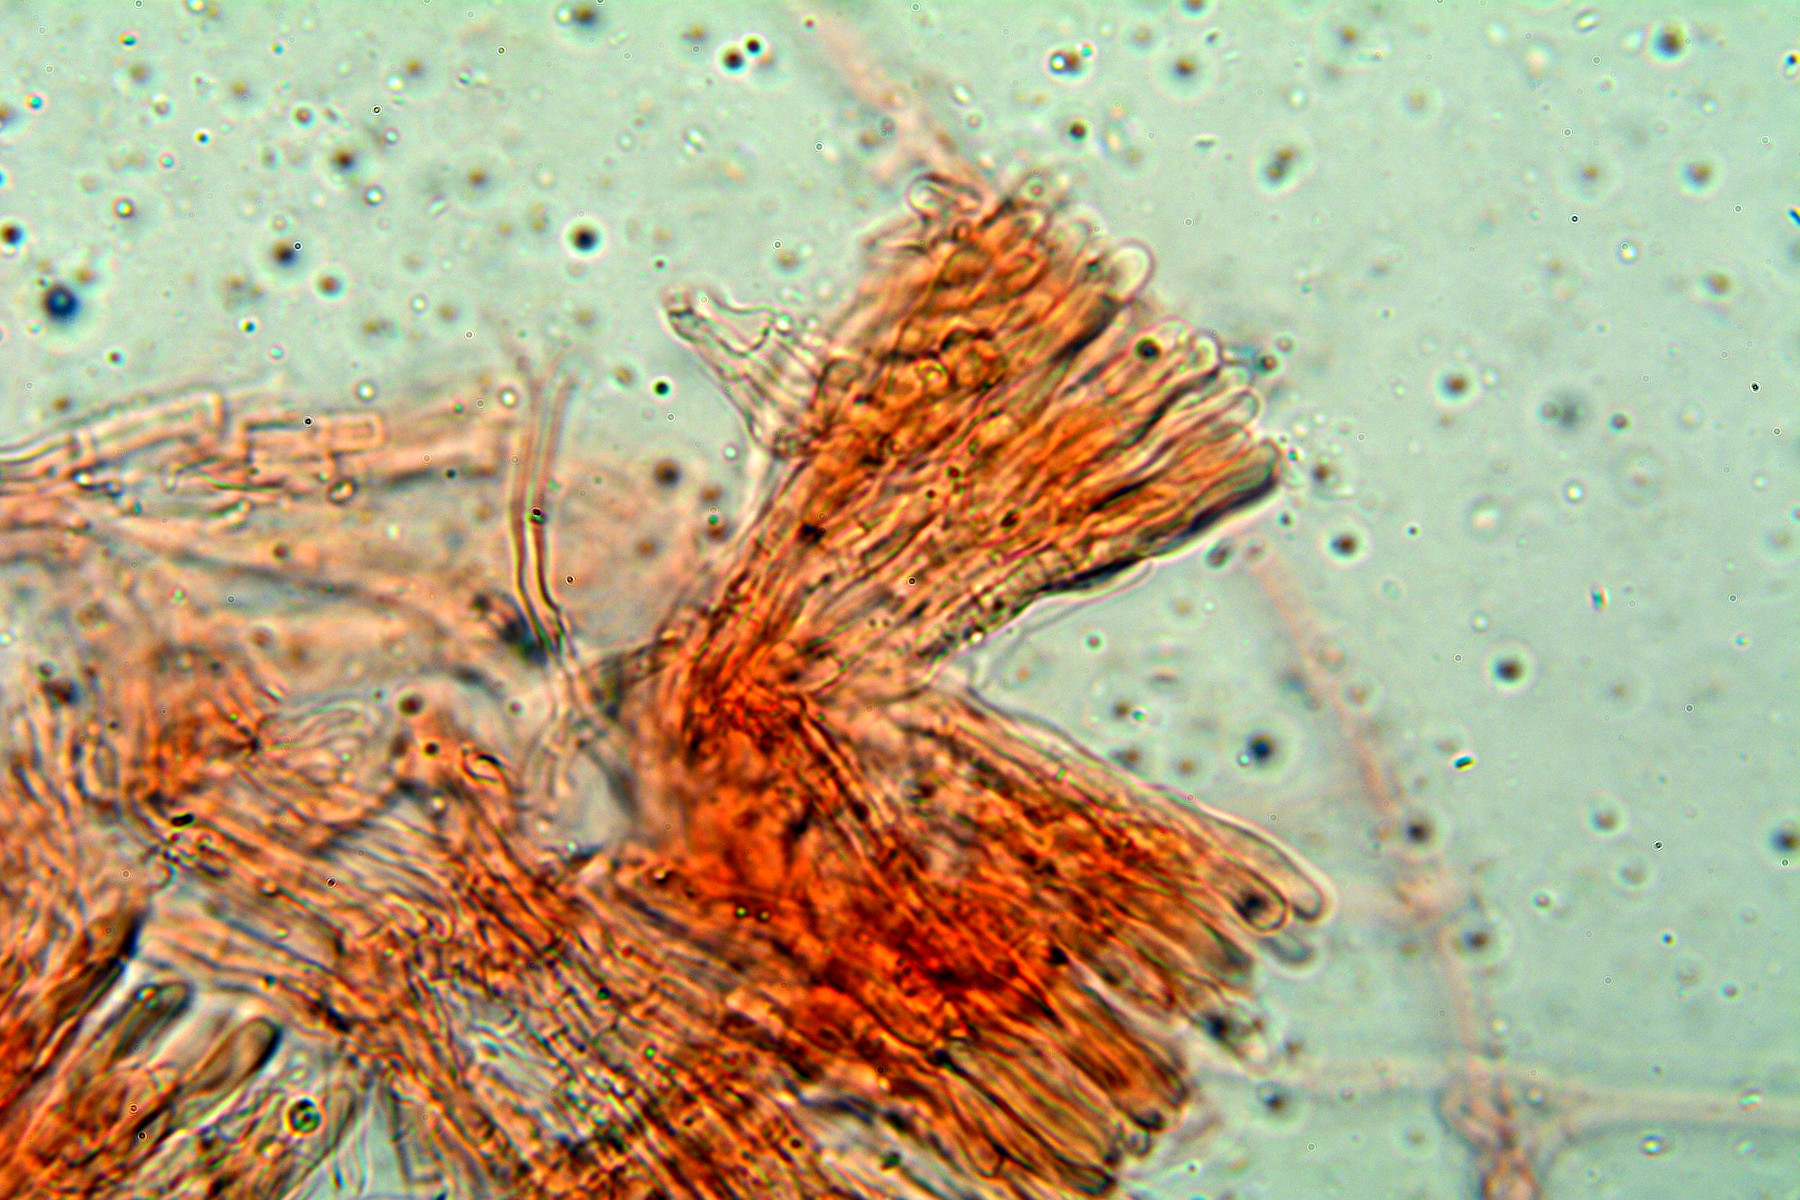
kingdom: Fungi
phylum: Basidiomycota
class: Agaricomycetes
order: Polyporales
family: Irpicaceae
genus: Efibula
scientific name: Efibula tuberculata
